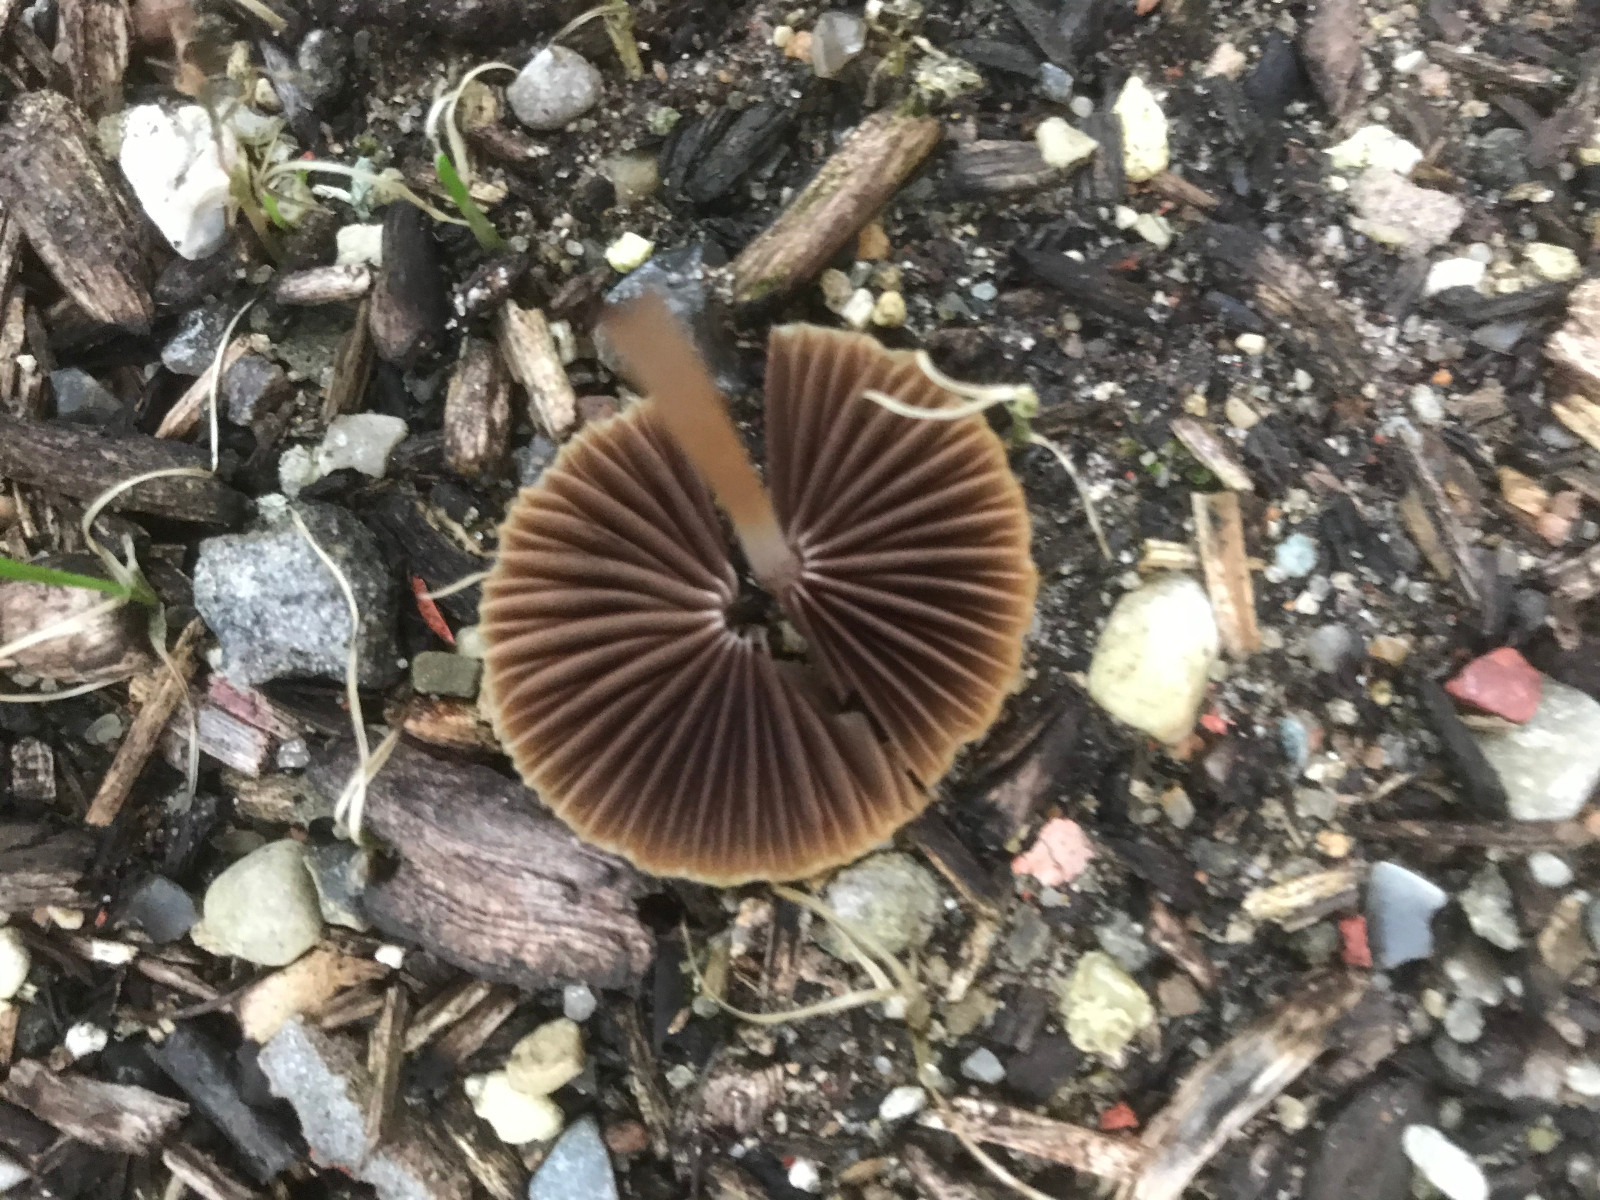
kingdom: Fungi
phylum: Basidiomycota
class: Agaricomycetes
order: Agaricales
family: Psathyrellaceae
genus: Psathyrella
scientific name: Psathyrella
